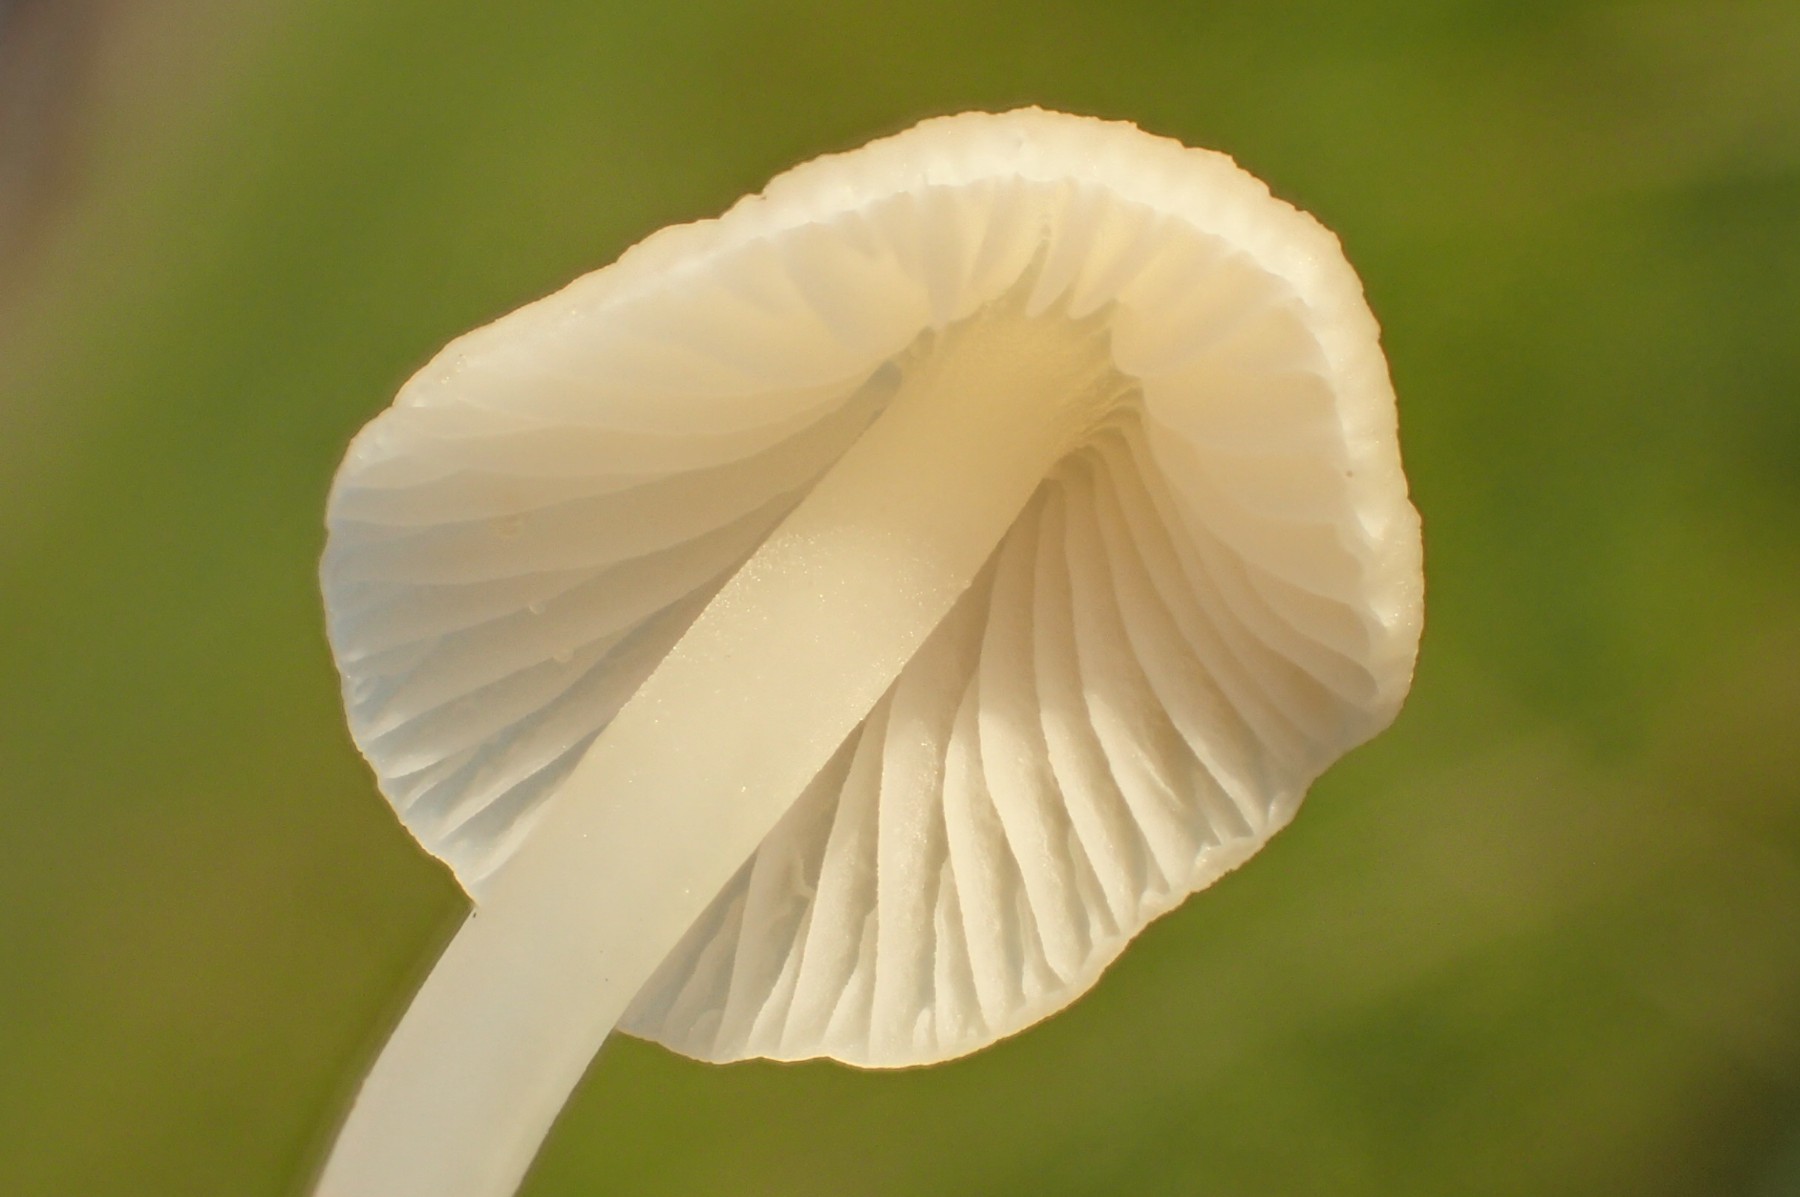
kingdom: Fungi
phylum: Basidiomycota
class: Agaricomycetes
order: Agaricales
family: Mycenaceae
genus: Atheniella
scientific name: Atheniella flavoalba
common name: gulhvid huesvamp
